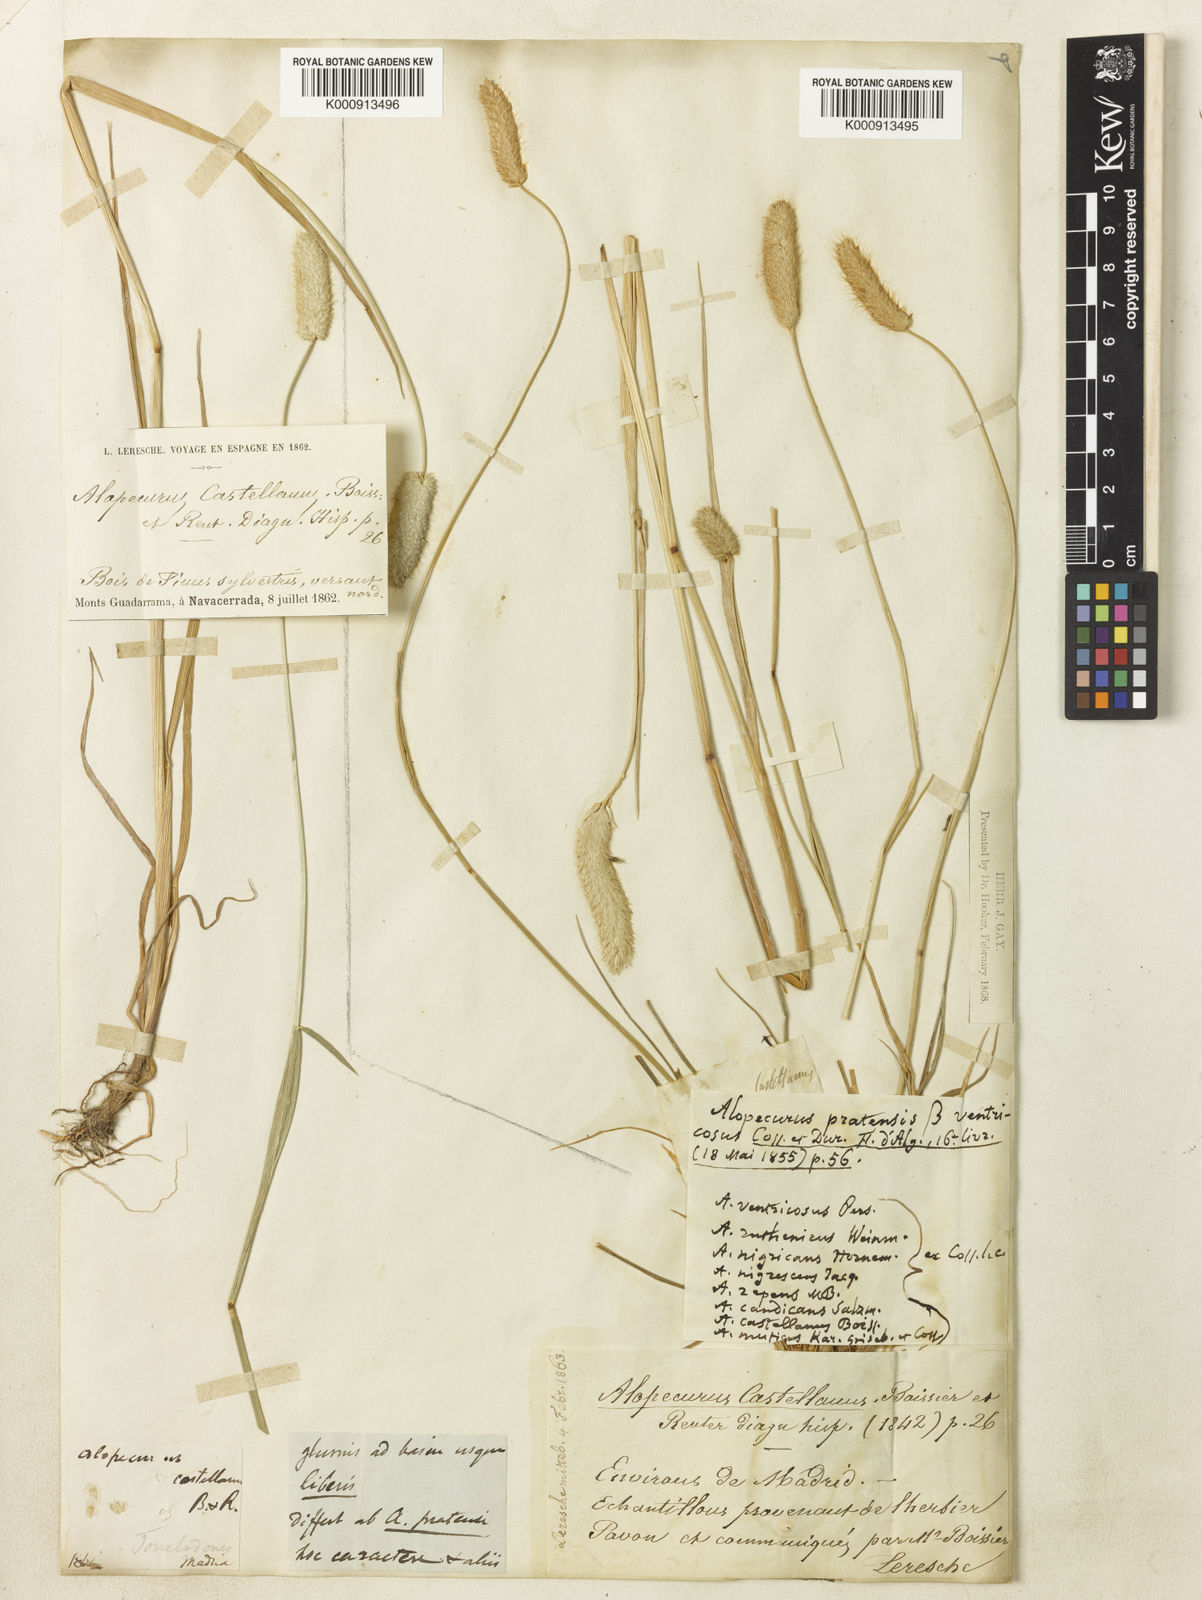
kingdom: Plantae
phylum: Tracheophyta
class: Liliopsida
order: Poales
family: Poaceae
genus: Alopecurus
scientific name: Alopecurus arundinaceus
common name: Creeping meadow foxtail
